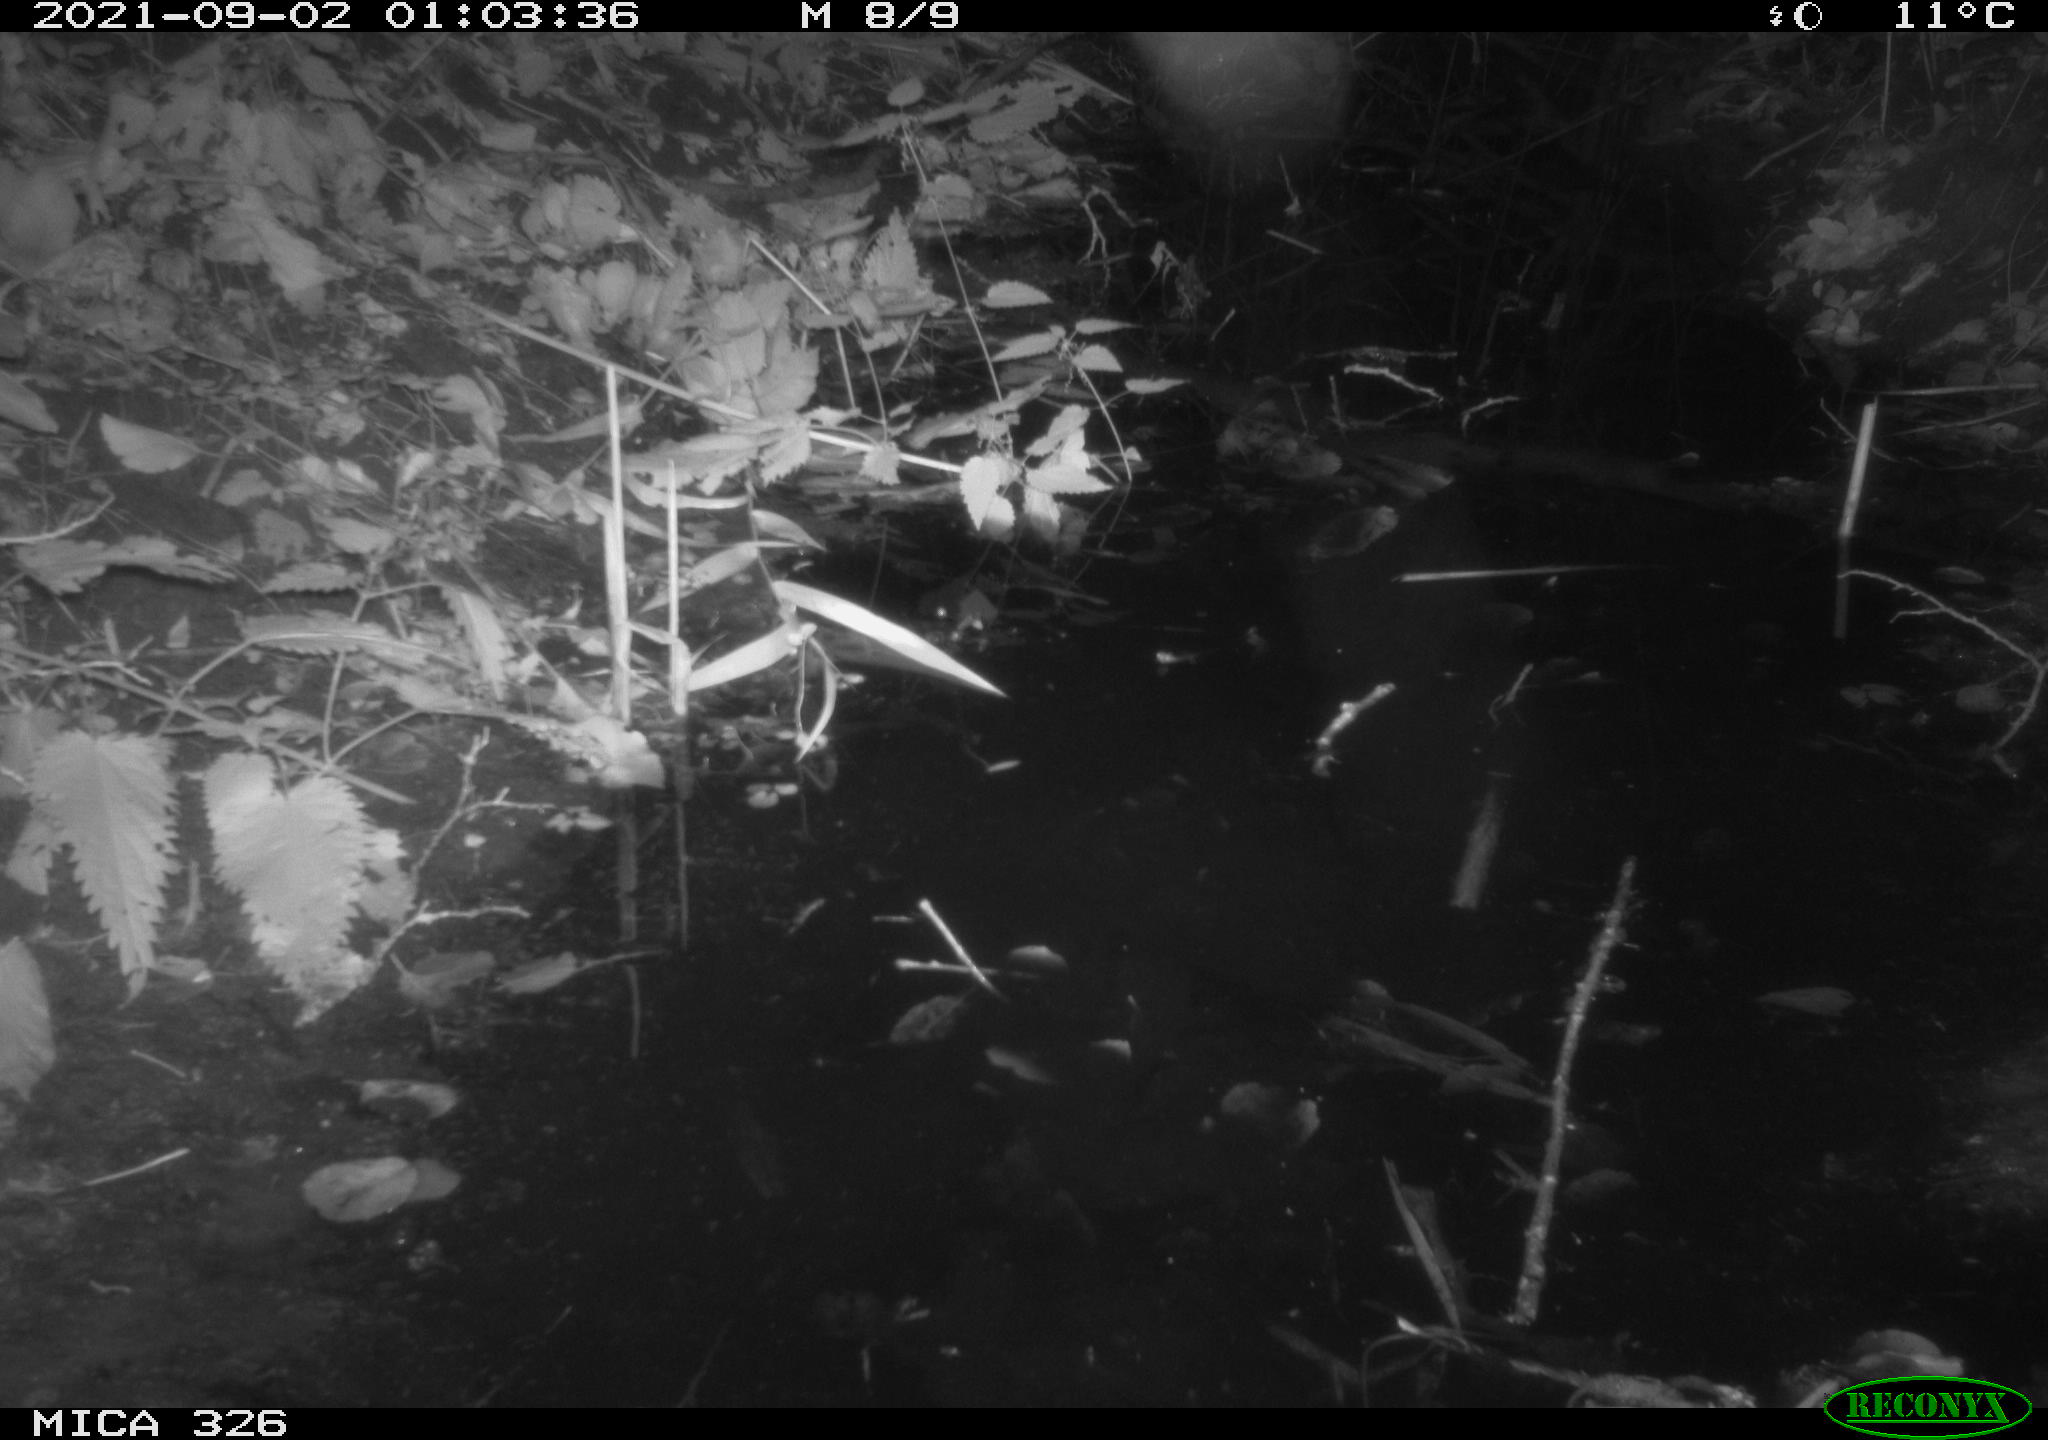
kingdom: Animalia
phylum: Chordata
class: Mammalia
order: Rodentia
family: Cricetidae
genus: Ondatra
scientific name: Ondatra zibethicus
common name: Muskrat
